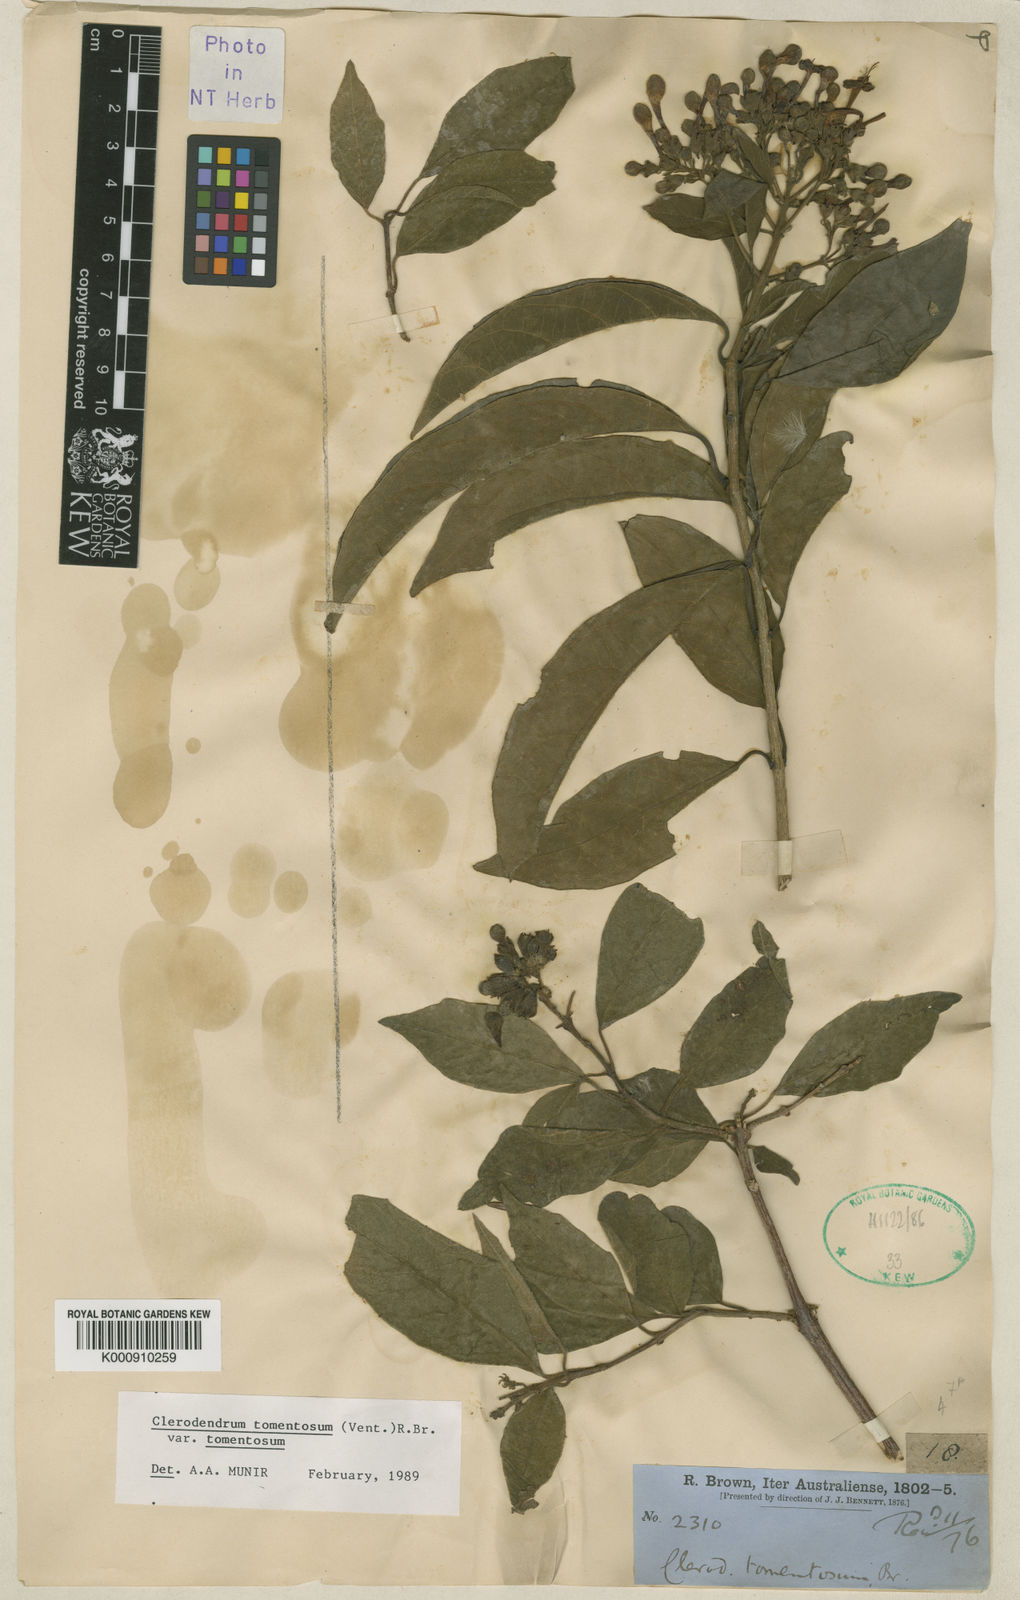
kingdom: Plantae
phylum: Tracheophyta
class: Magnoliopsida
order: Lamiales
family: Lamiaceae
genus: Clerodendrum
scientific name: Clerodendrum tomentosum
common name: Hairy clerodendrum
